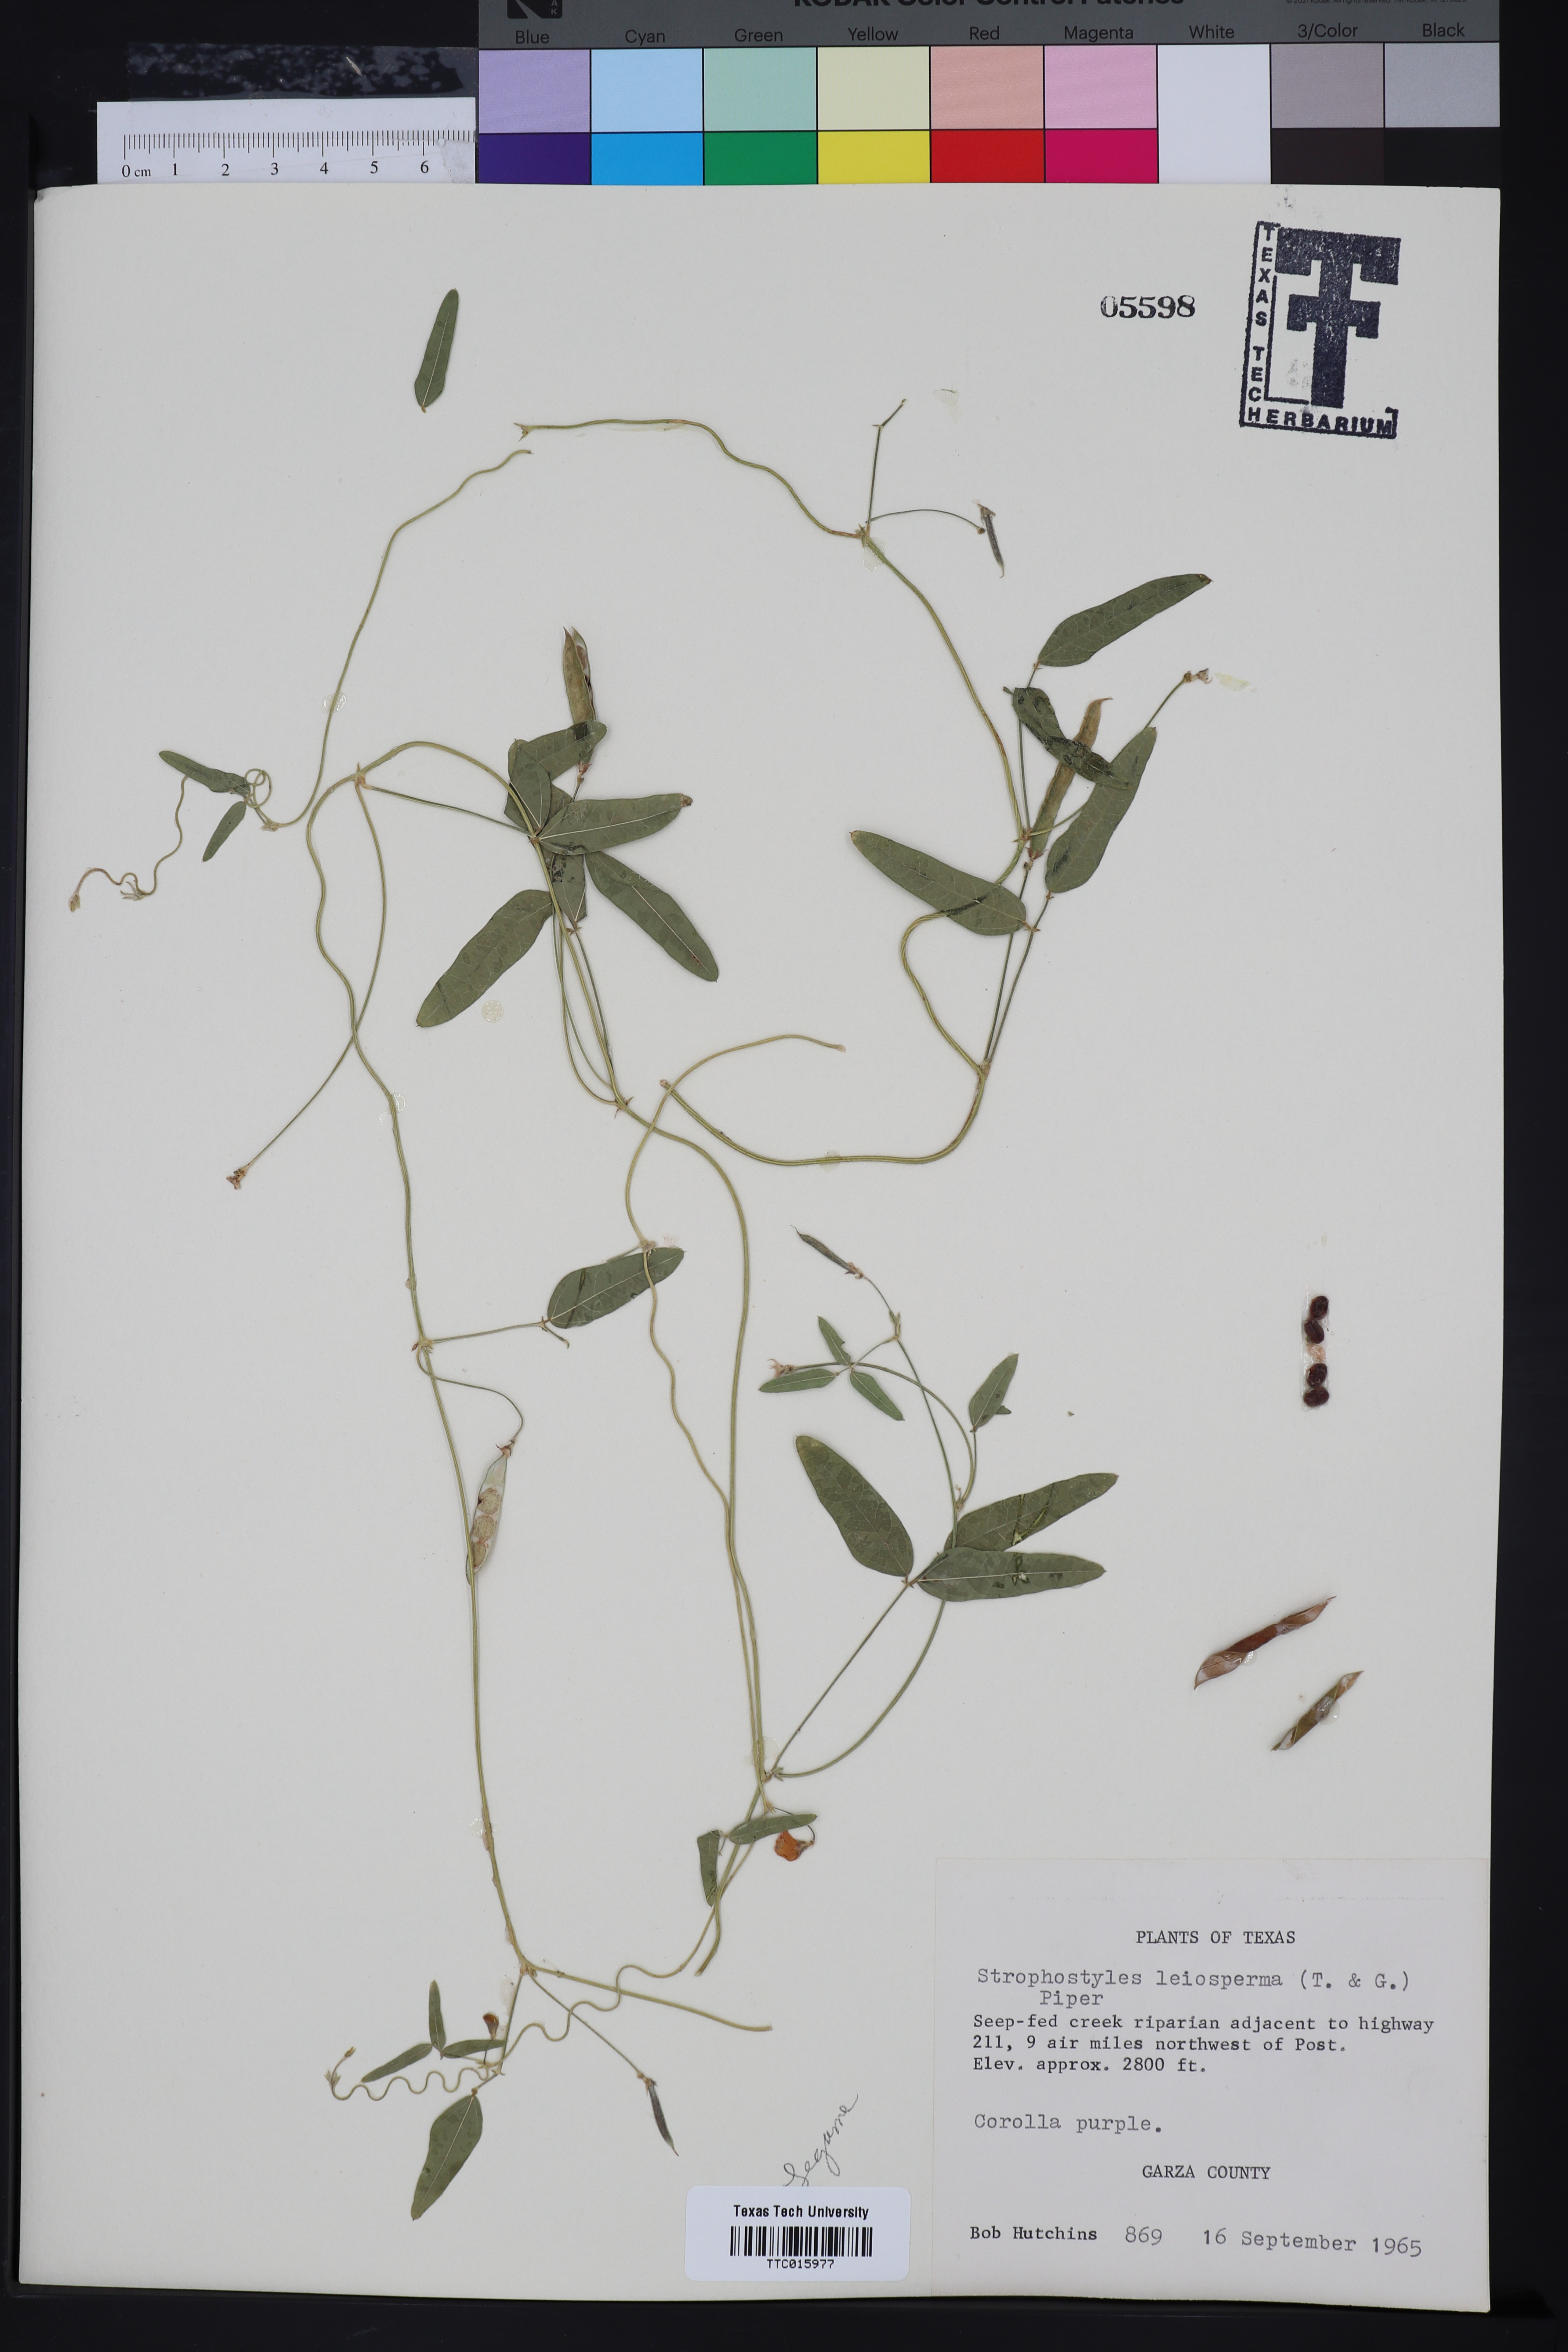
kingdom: Plantae
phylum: Tracheophyta
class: Magnoliopsida
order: Fabales
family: Fabaceae
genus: Strophostyles
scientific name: Strophostyles leiosperma
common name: Smooth-seed wild bean
